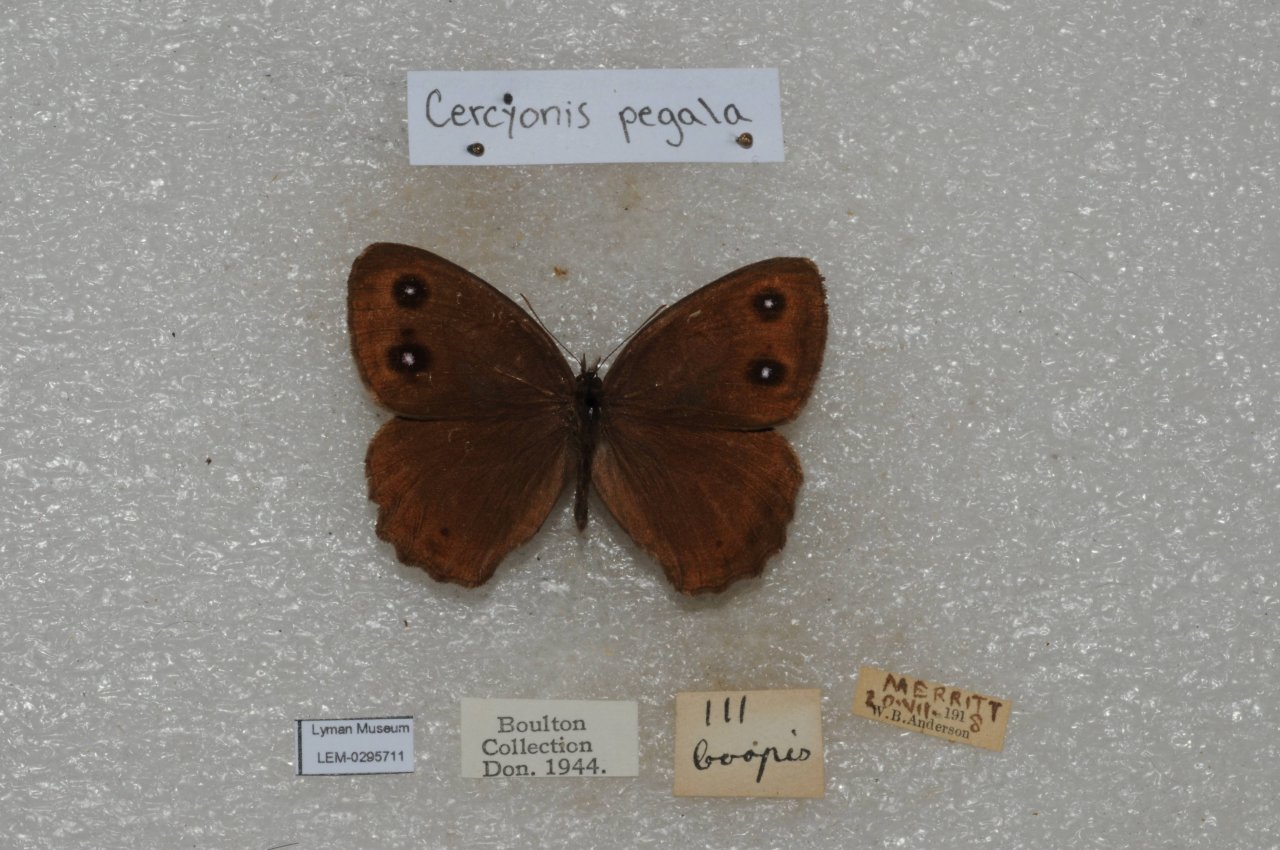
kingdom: Animalia
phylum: Arthropoda
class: Insecta
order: Lepidoptera
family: Nymphalidae
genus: Cercyonis
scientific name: Cercyonis pegala
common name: Common Wood-Nymph
